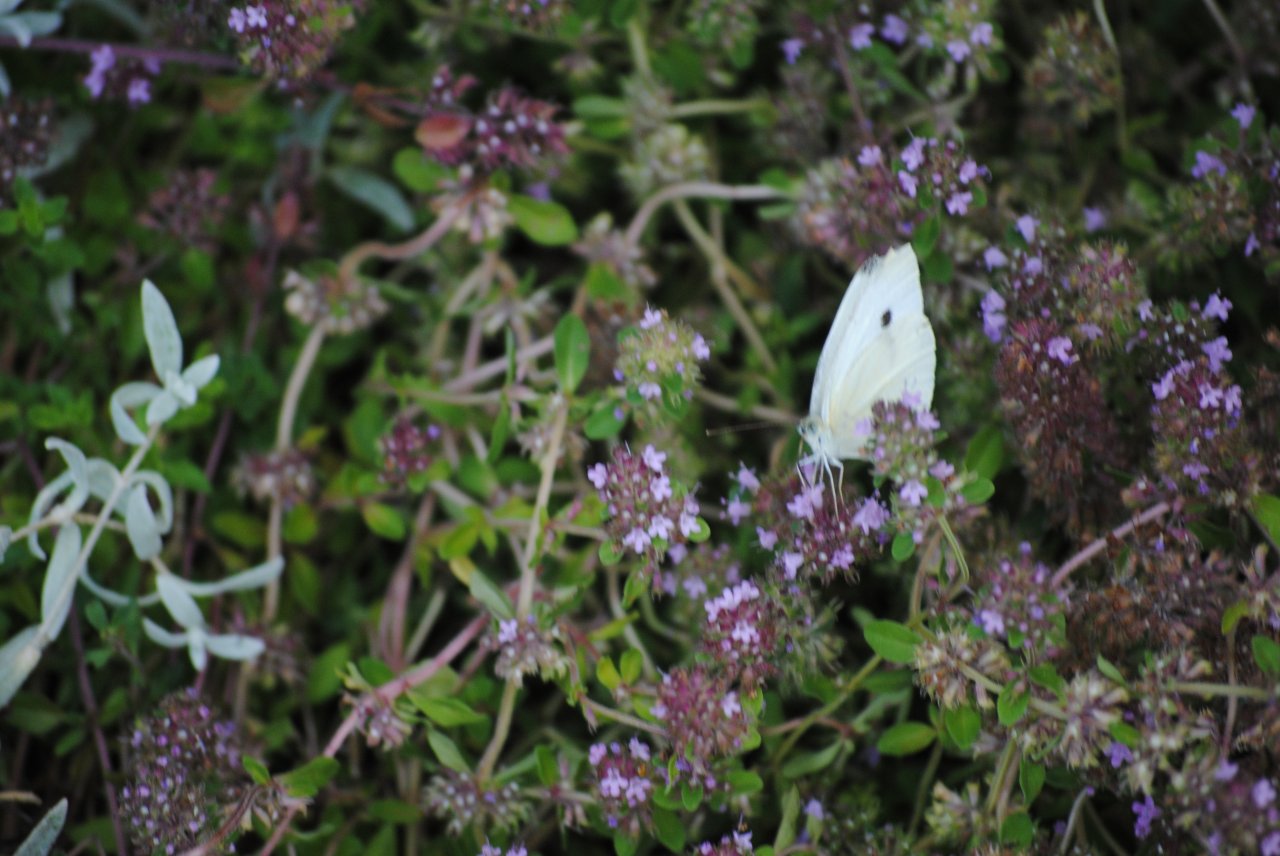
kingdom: Animalia
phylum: Arthropoda
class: Insecta
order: Lepidoptera
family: Pieridae
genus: Pieris
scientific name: Pieris rapae
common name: Cabbage White
